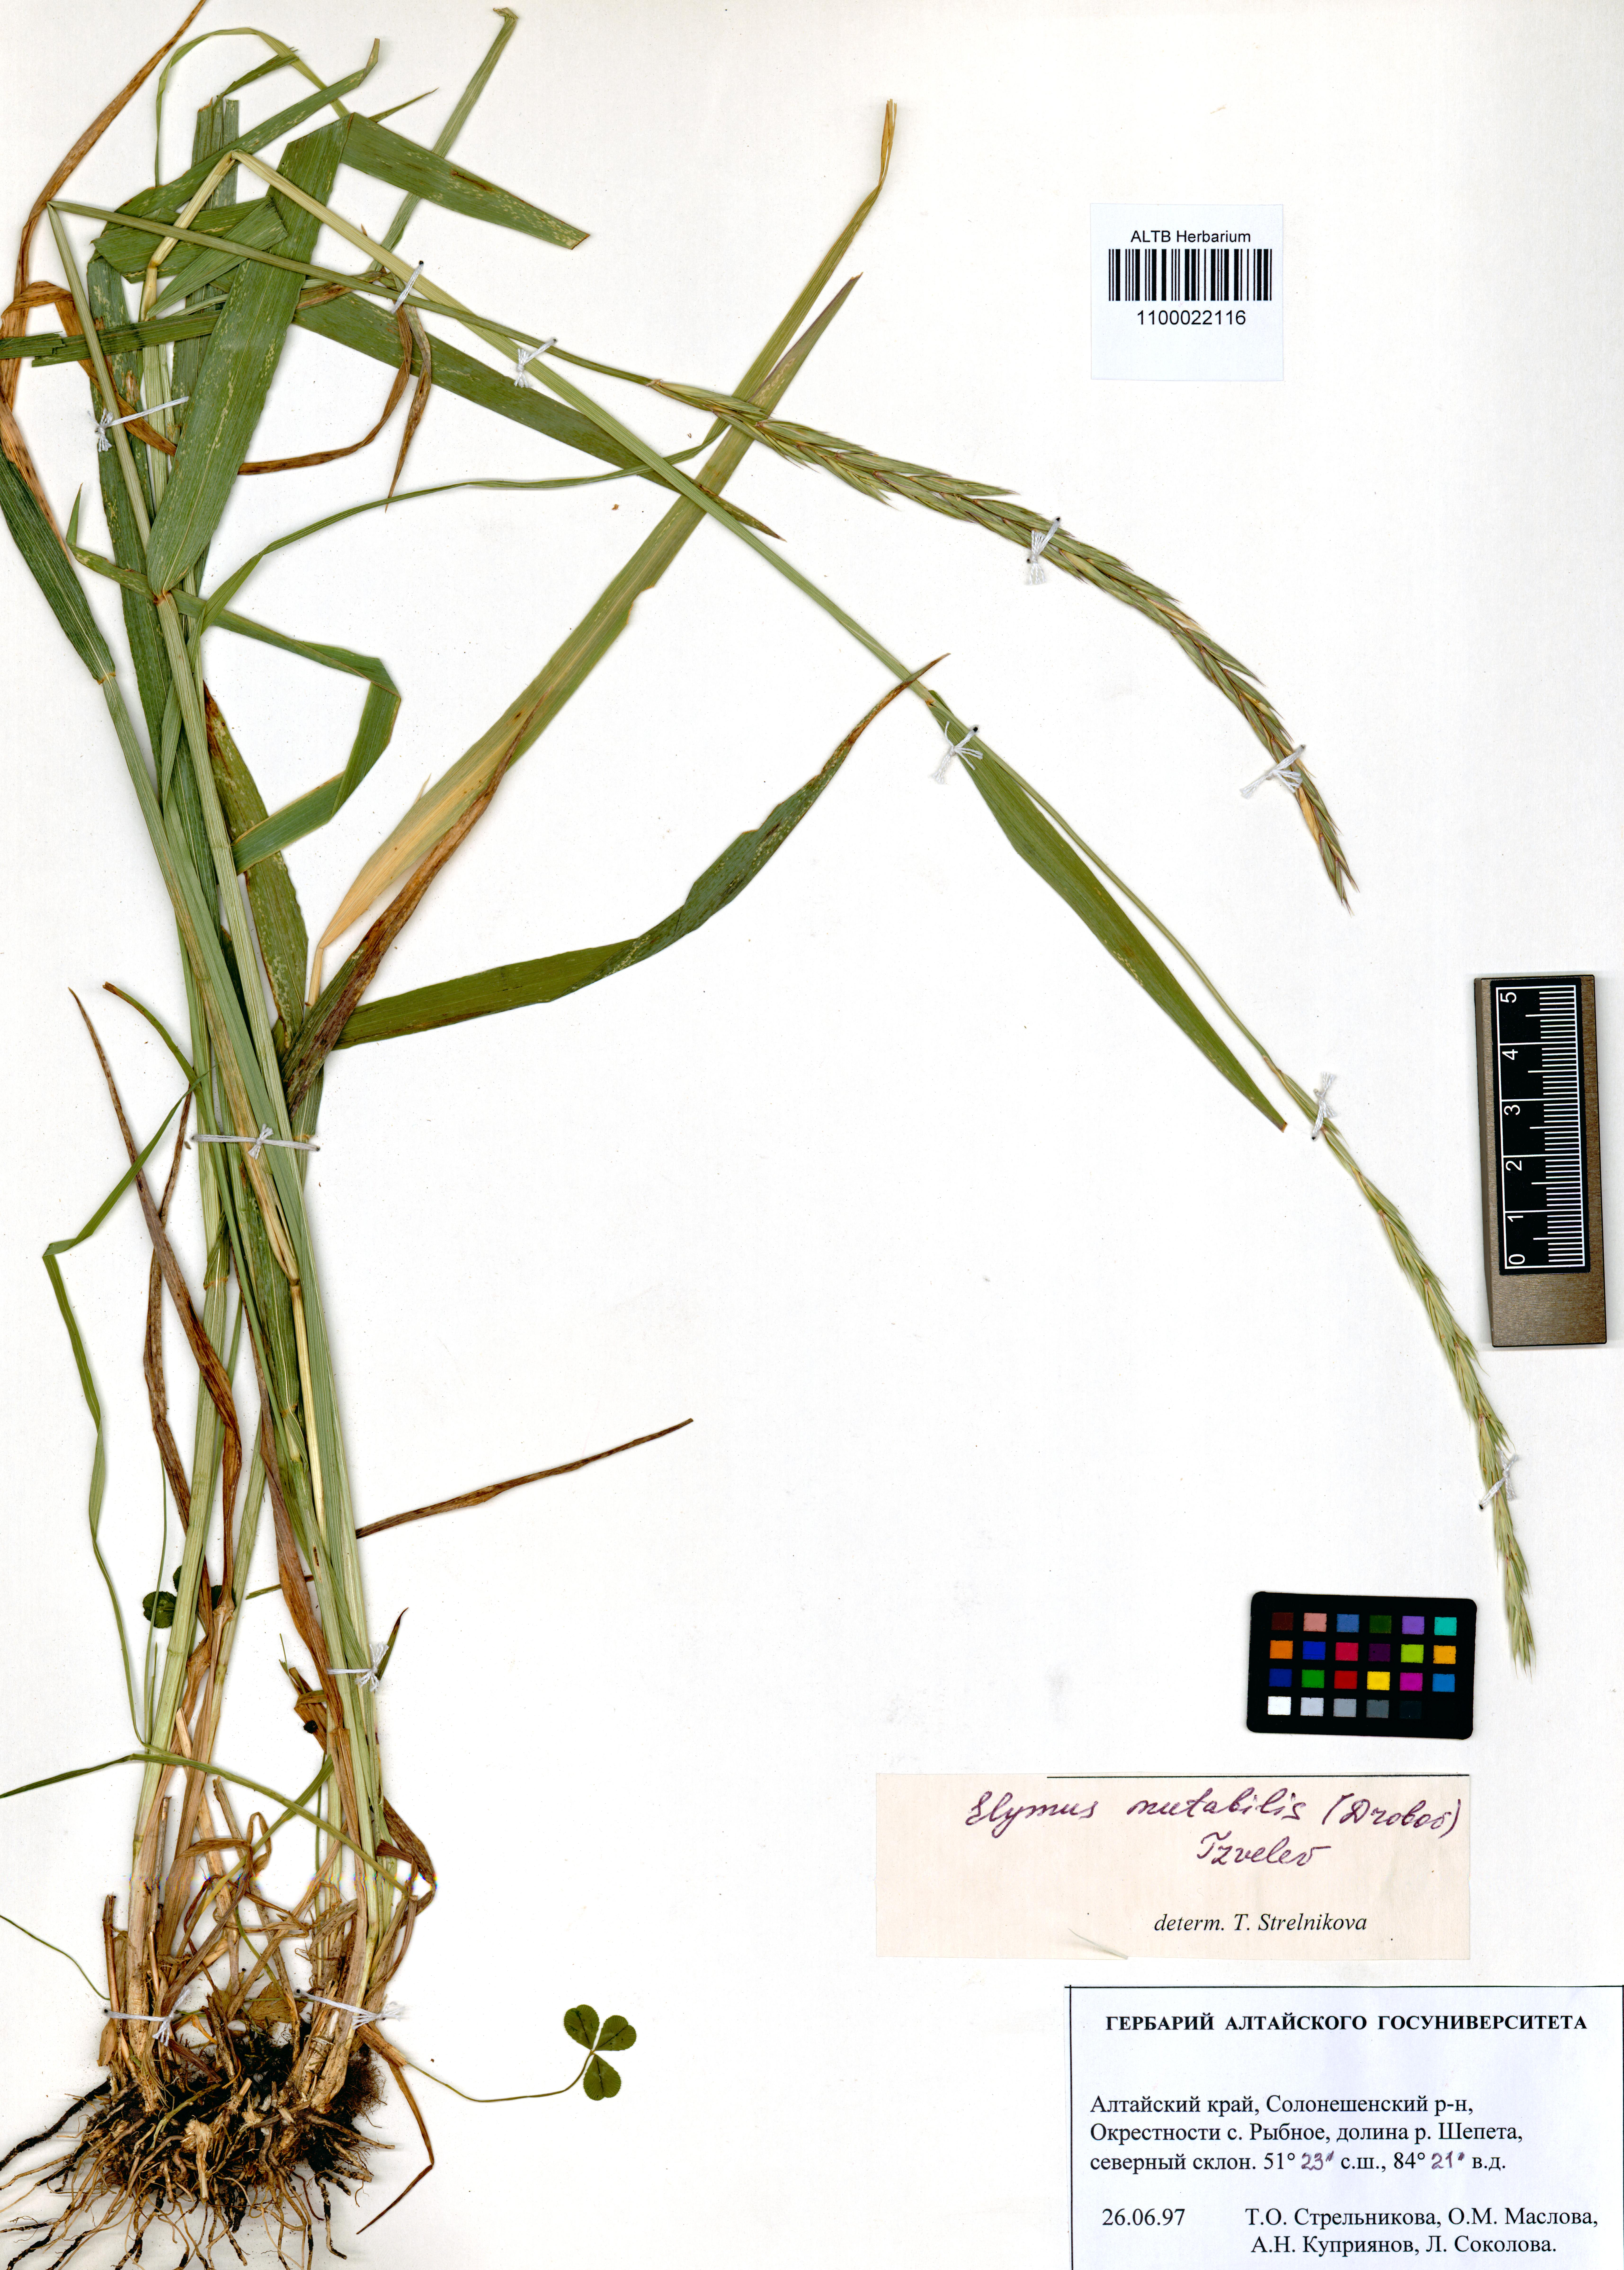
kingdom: Plantae
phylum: Tracheophyta
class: Liliopsida
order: Poales
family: Poaceae
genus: Elymus
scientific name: Elymus mutabilis
